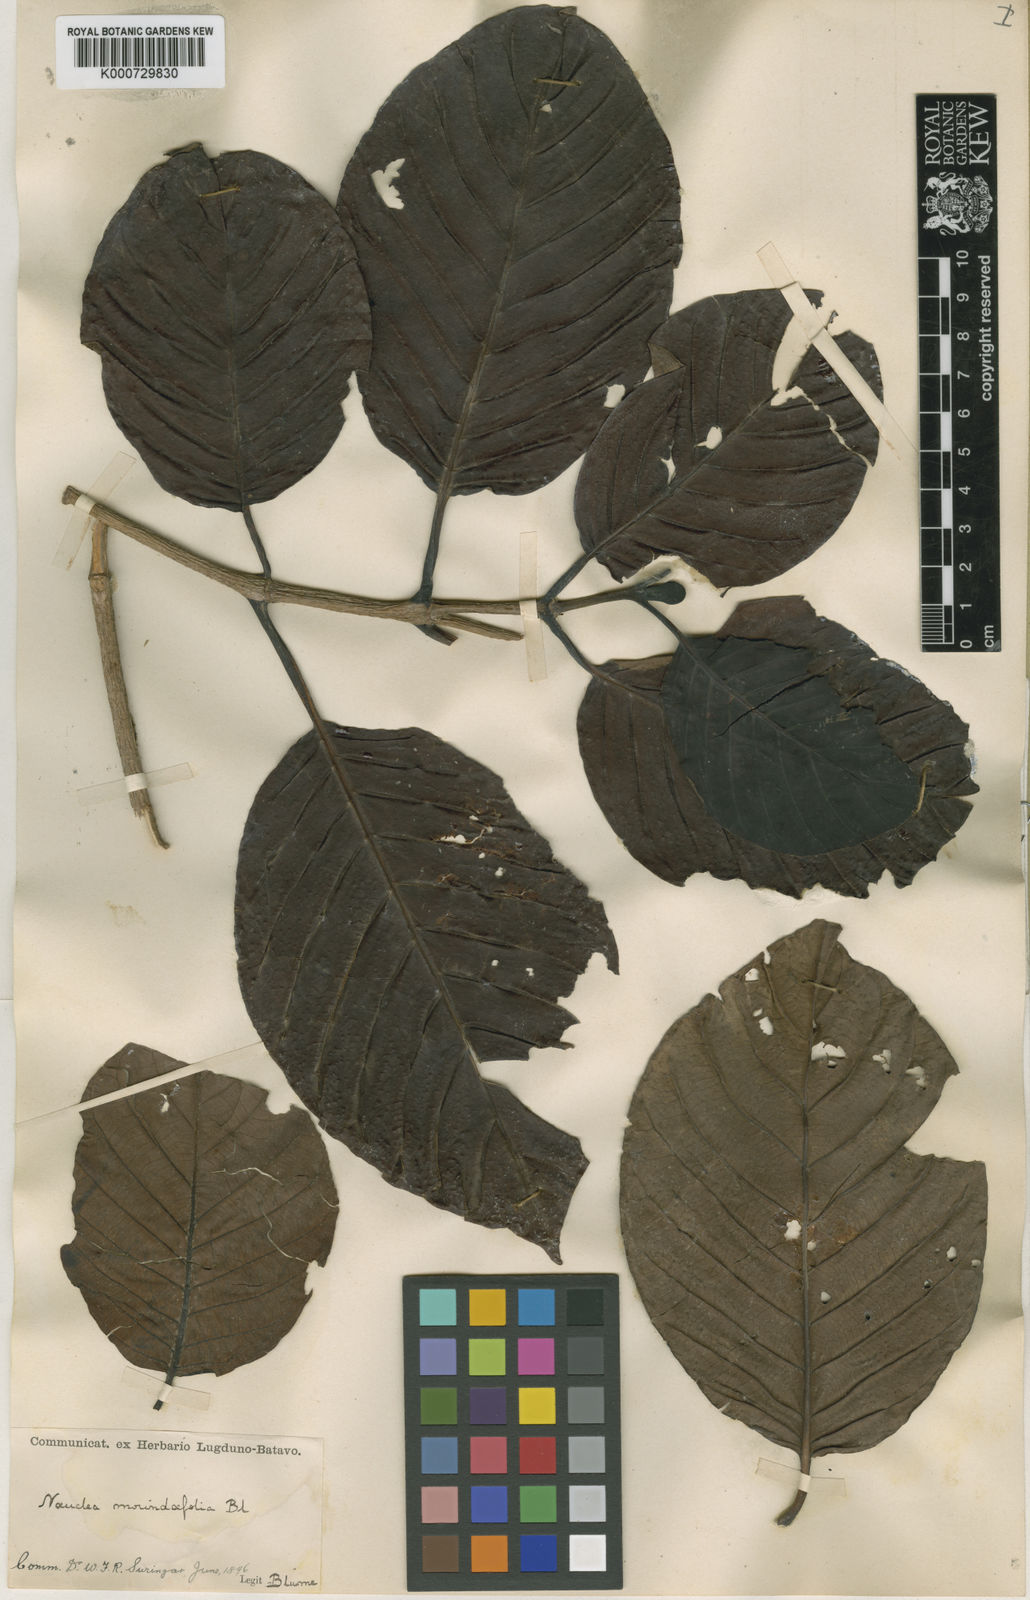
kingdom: Plantae
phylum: Tracheophyta
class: Magnoliopsida
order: Gentianales
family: Rubiaceae
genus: Neonauclea
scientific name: Neonauclea excelsa
